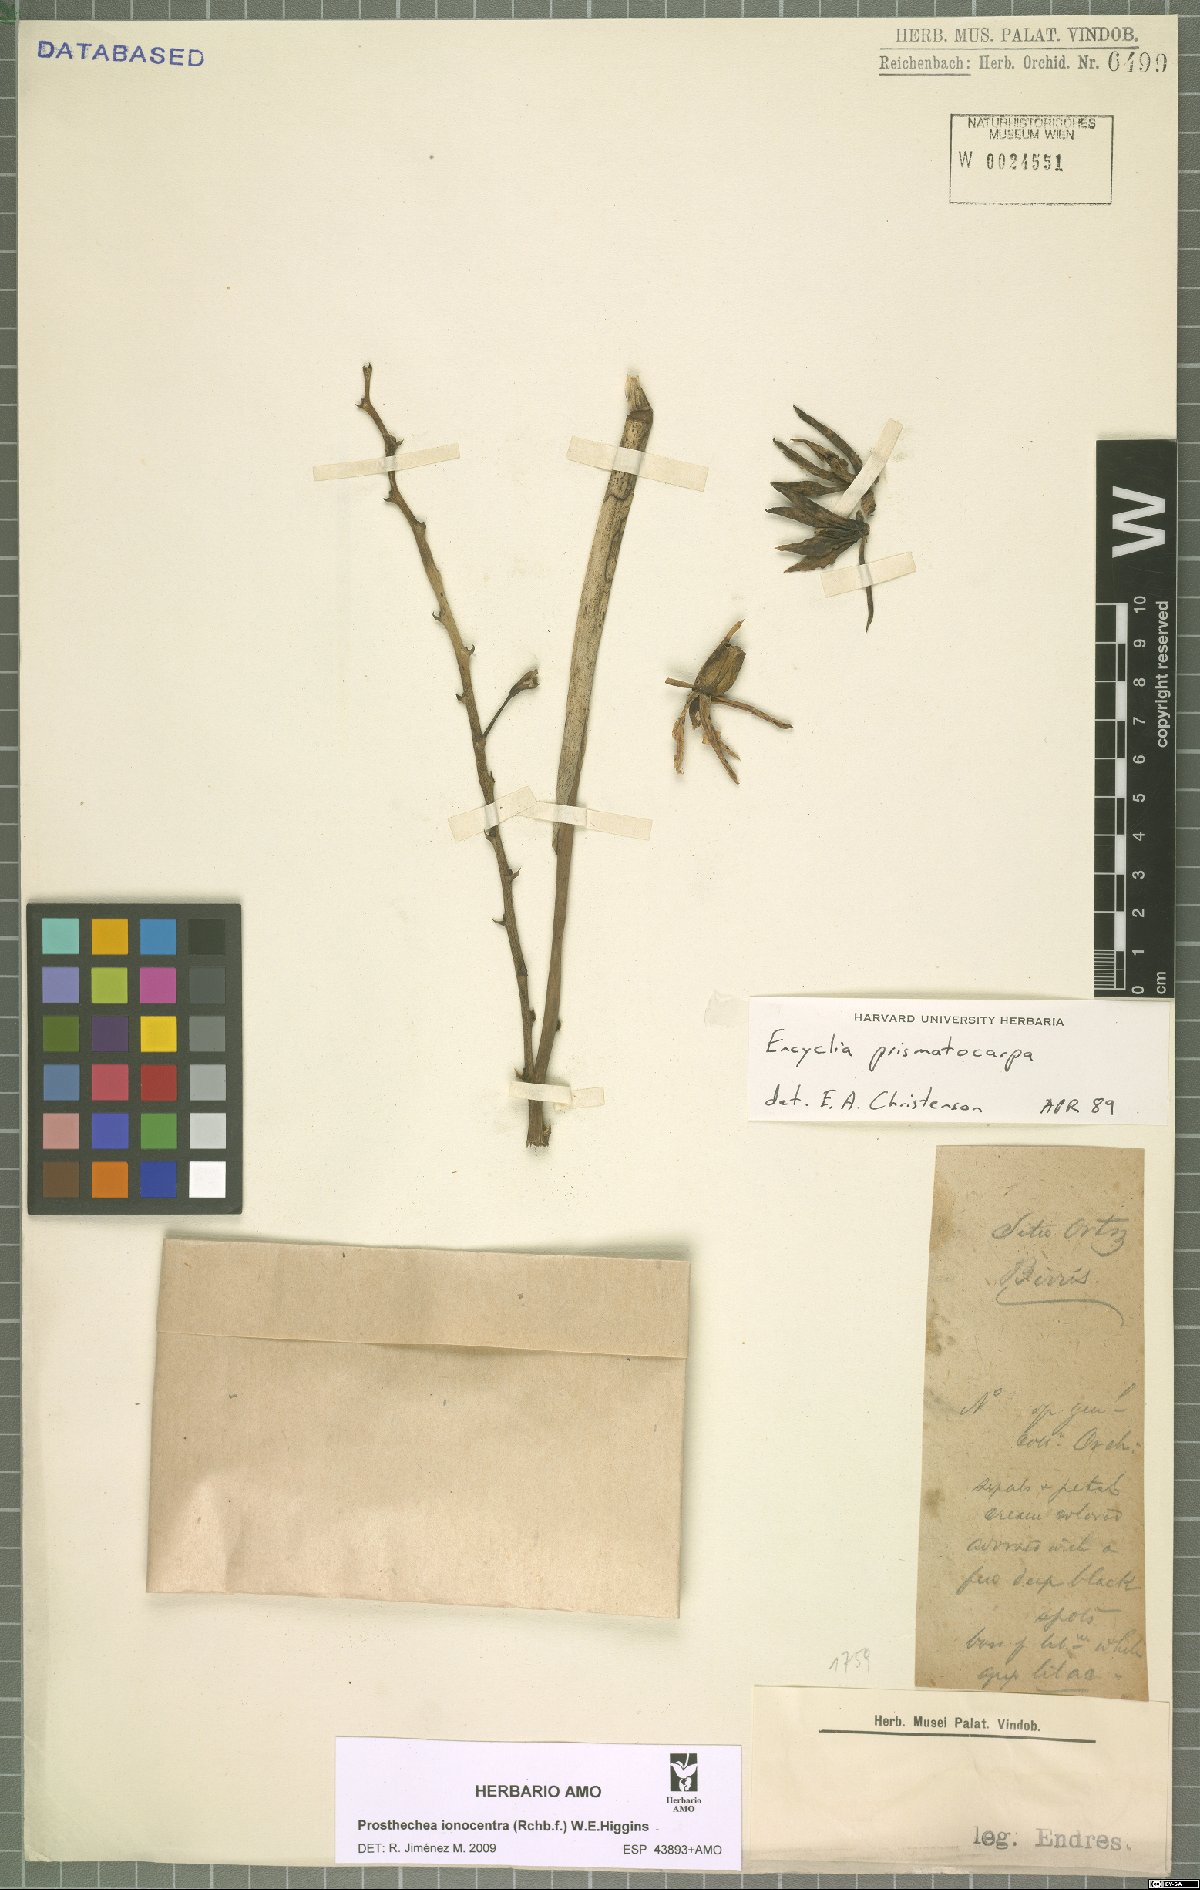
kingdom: Plantae
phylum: Tracheophyta
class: Liliopsida
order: Asparagales
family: Orchidaceae
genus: Prosthechea
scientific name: Prosthechea ionocentra
